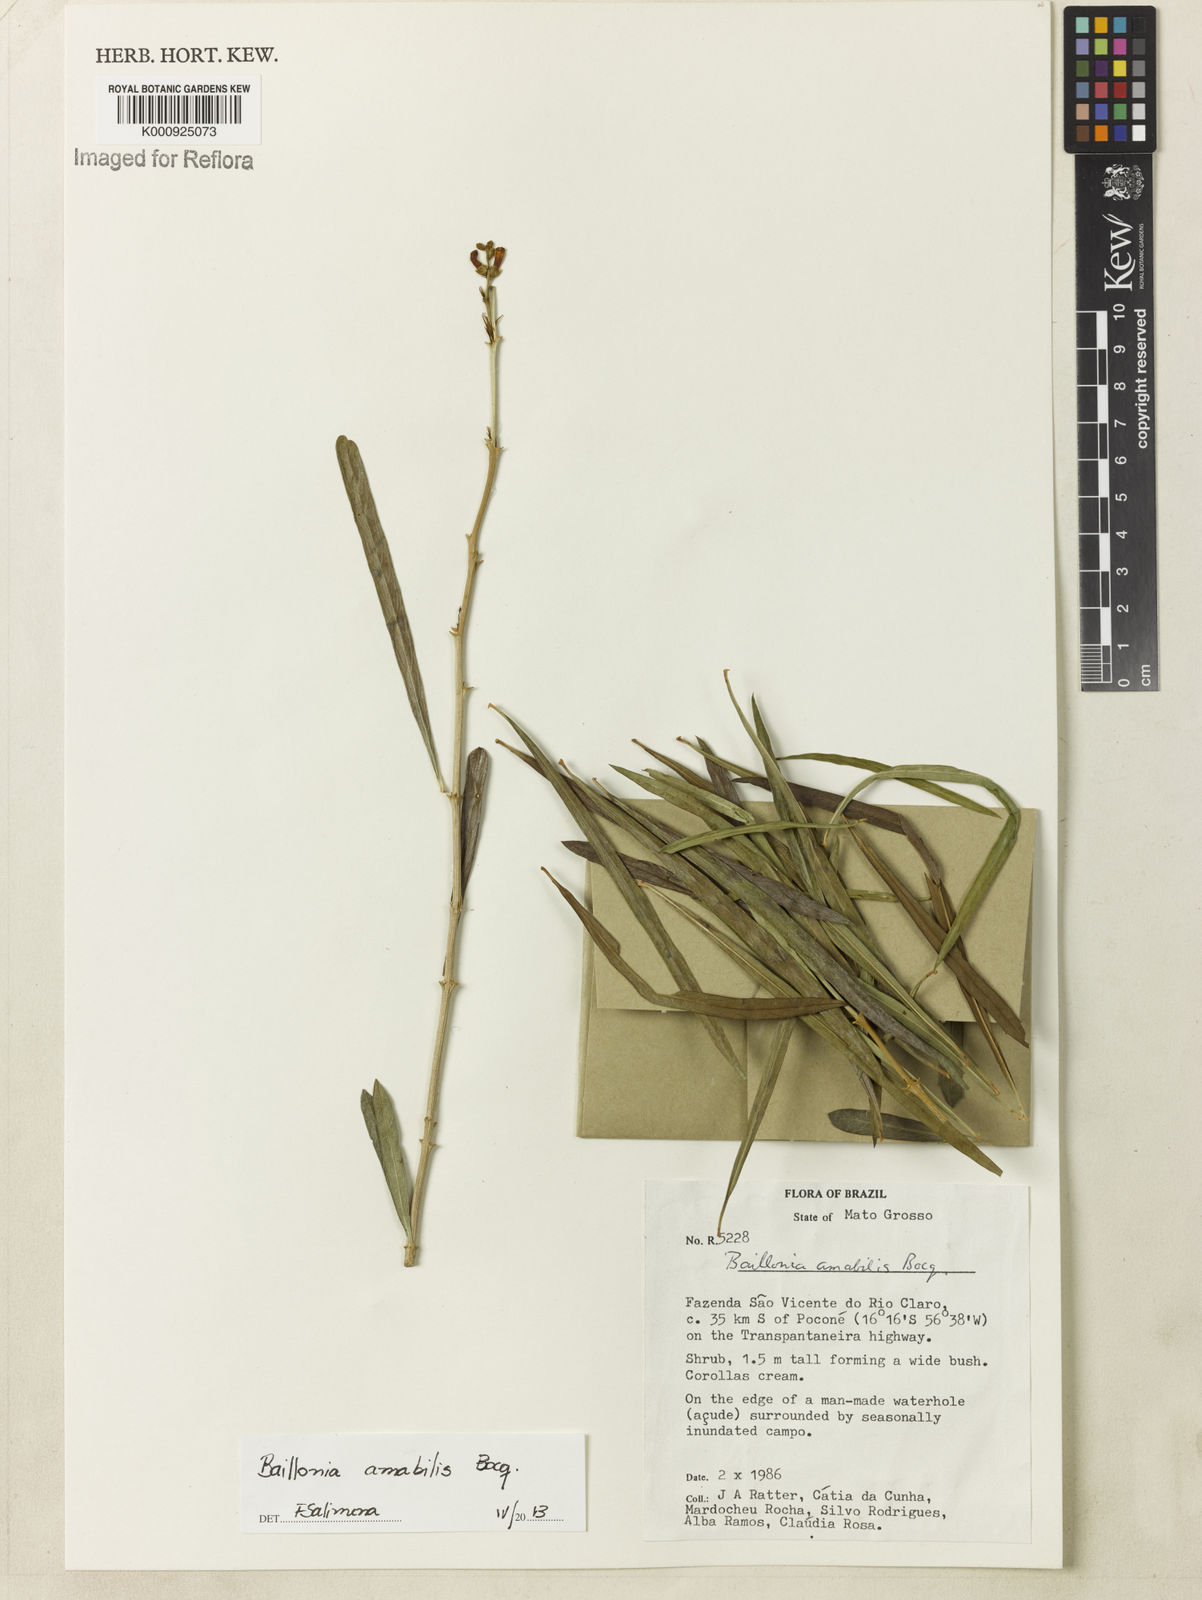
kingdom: Plantae
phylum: Tracheophyta
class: Magnoliopsida
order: Lamiales
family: Verbenaceae
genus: Citharexylum
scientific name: Citharexylum amabile
